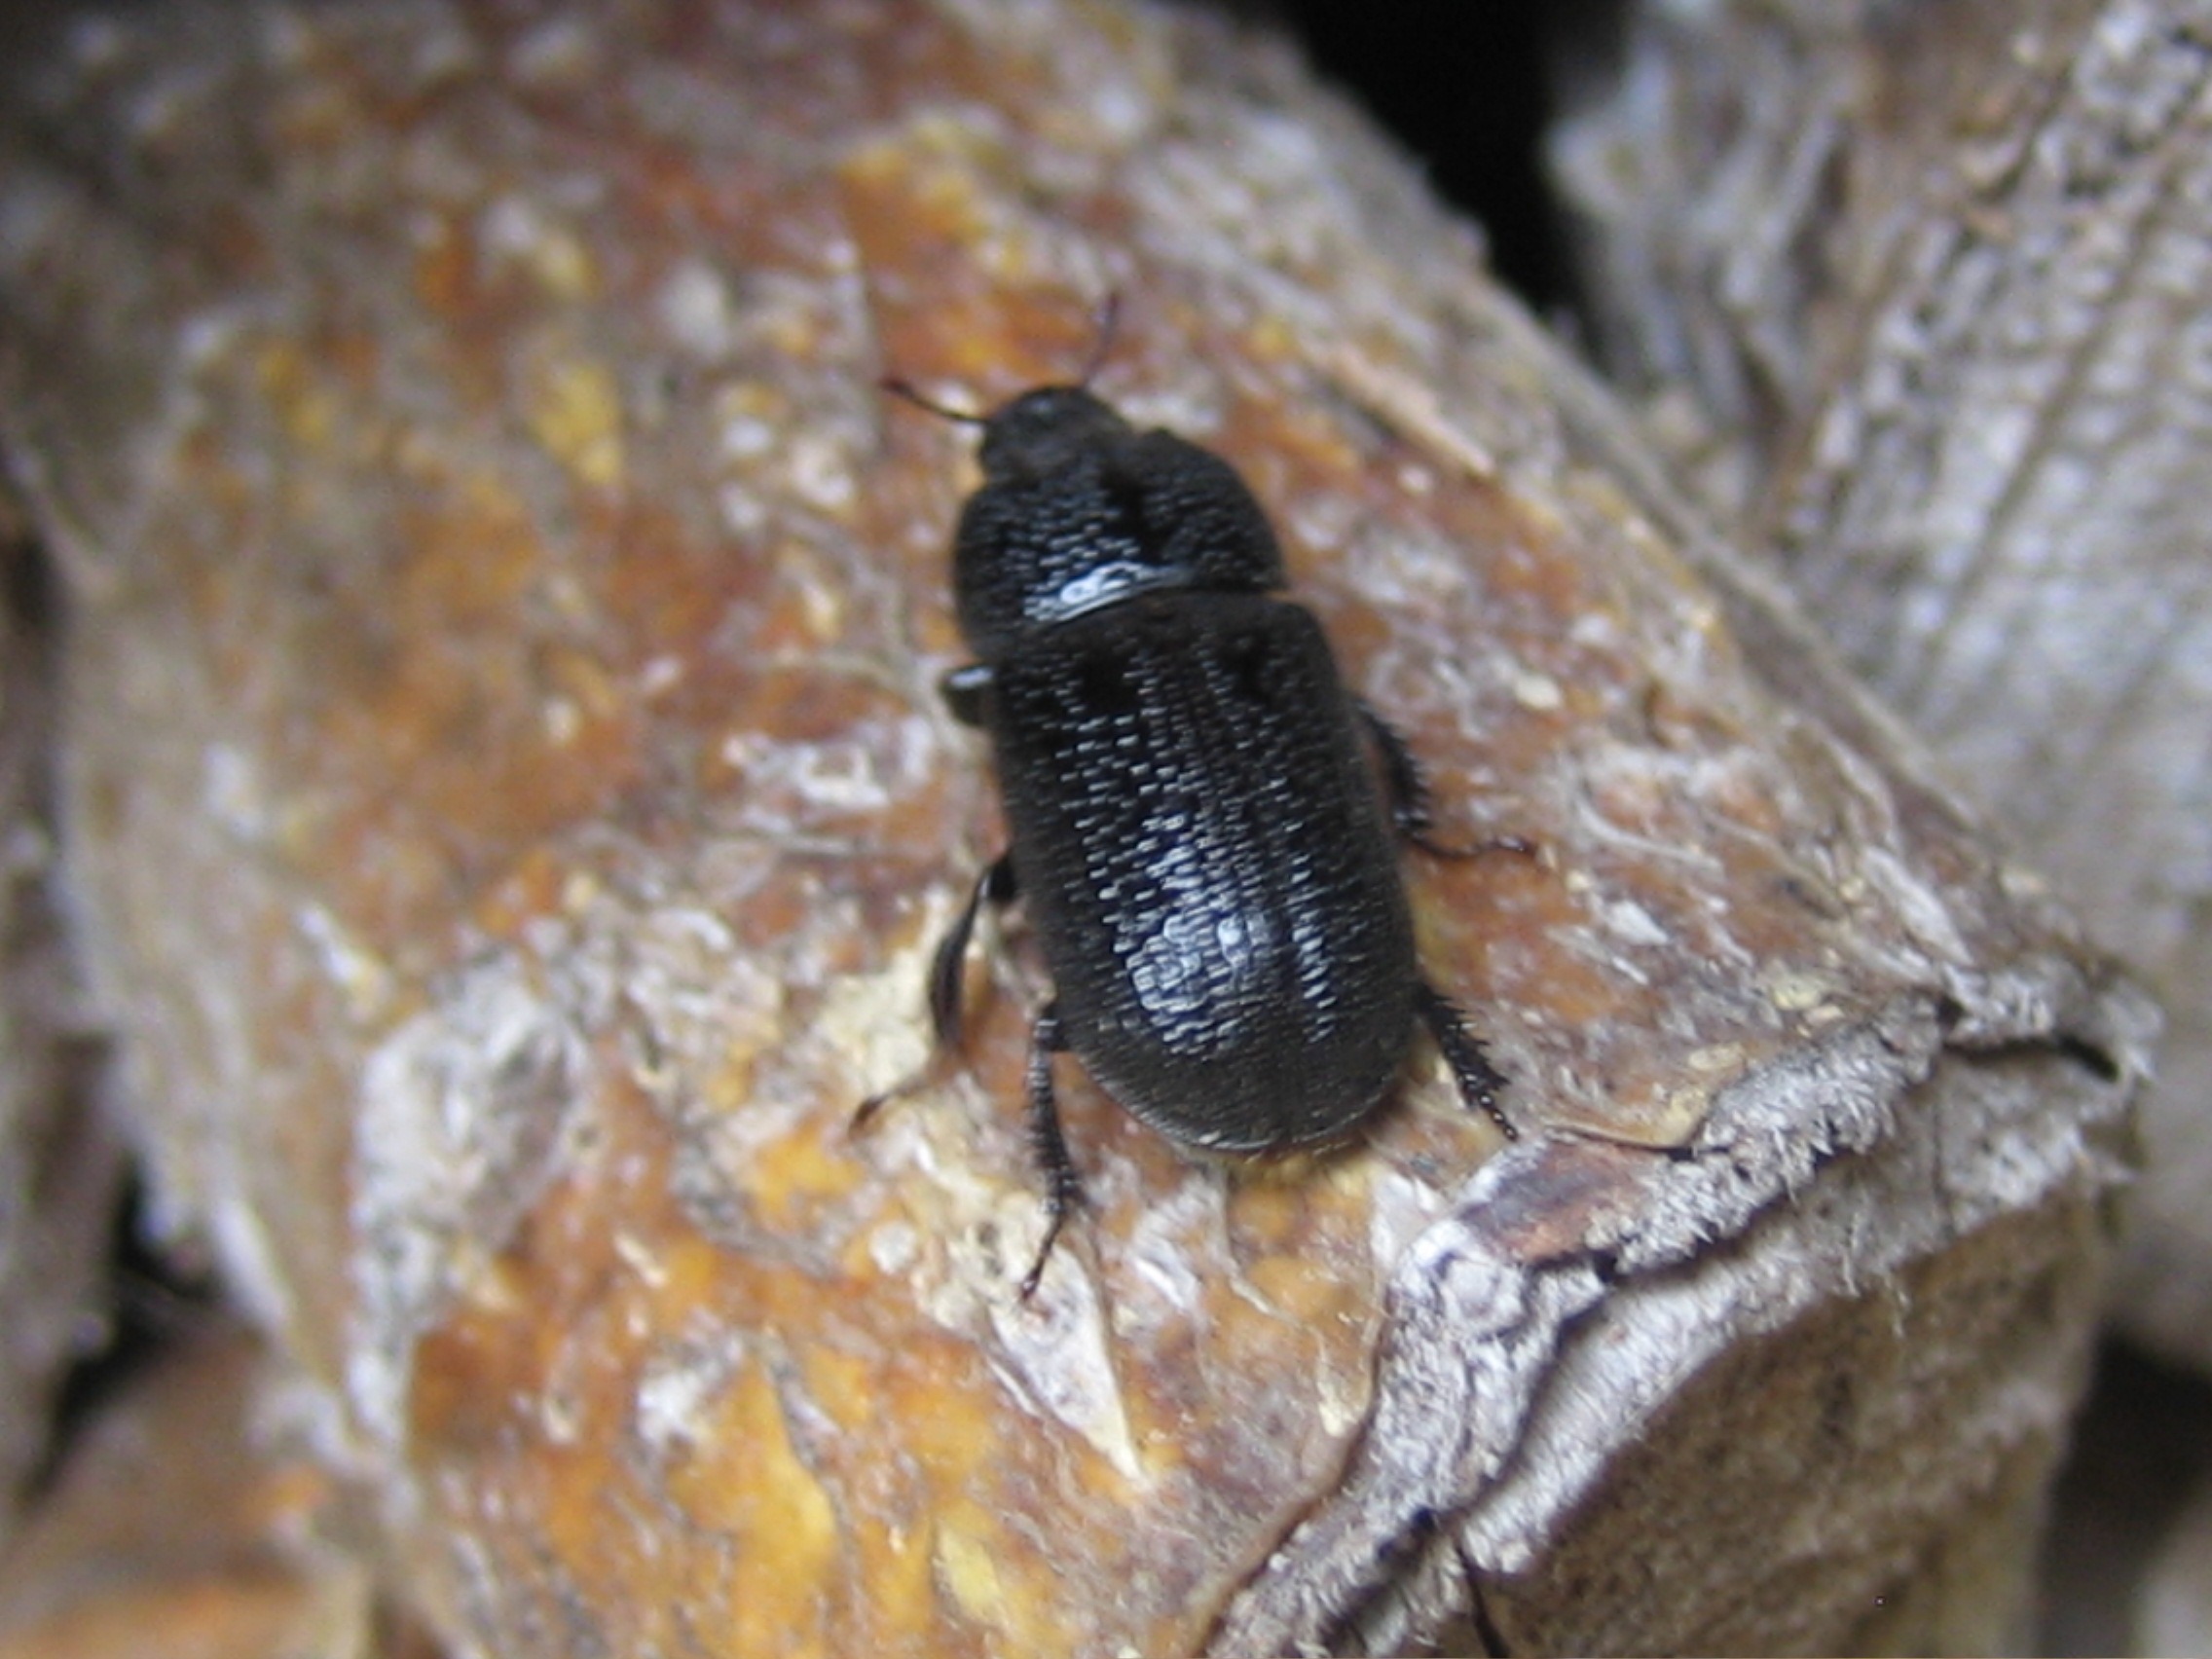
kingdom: Animalia
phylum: Arthropoda
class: Insecta
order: Coleoptera
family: Lucanidae
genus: Sinodendron
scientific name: Sinodendron cylindricum
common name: Valsehjort
